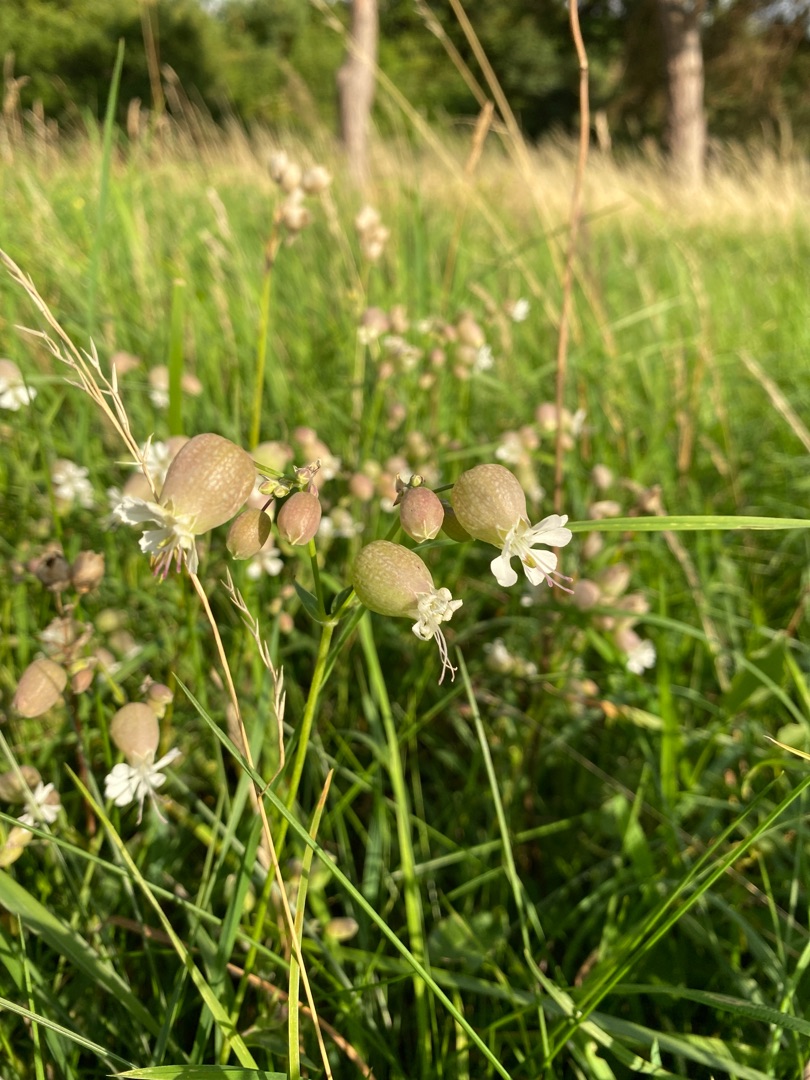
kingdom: Plantae
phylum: Tracheophyta
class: Magnoliopsida
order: Caryophyllales
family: Caryophyllaceae
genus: Silene
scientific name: Silene vulgaris
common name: Blæresmælde
